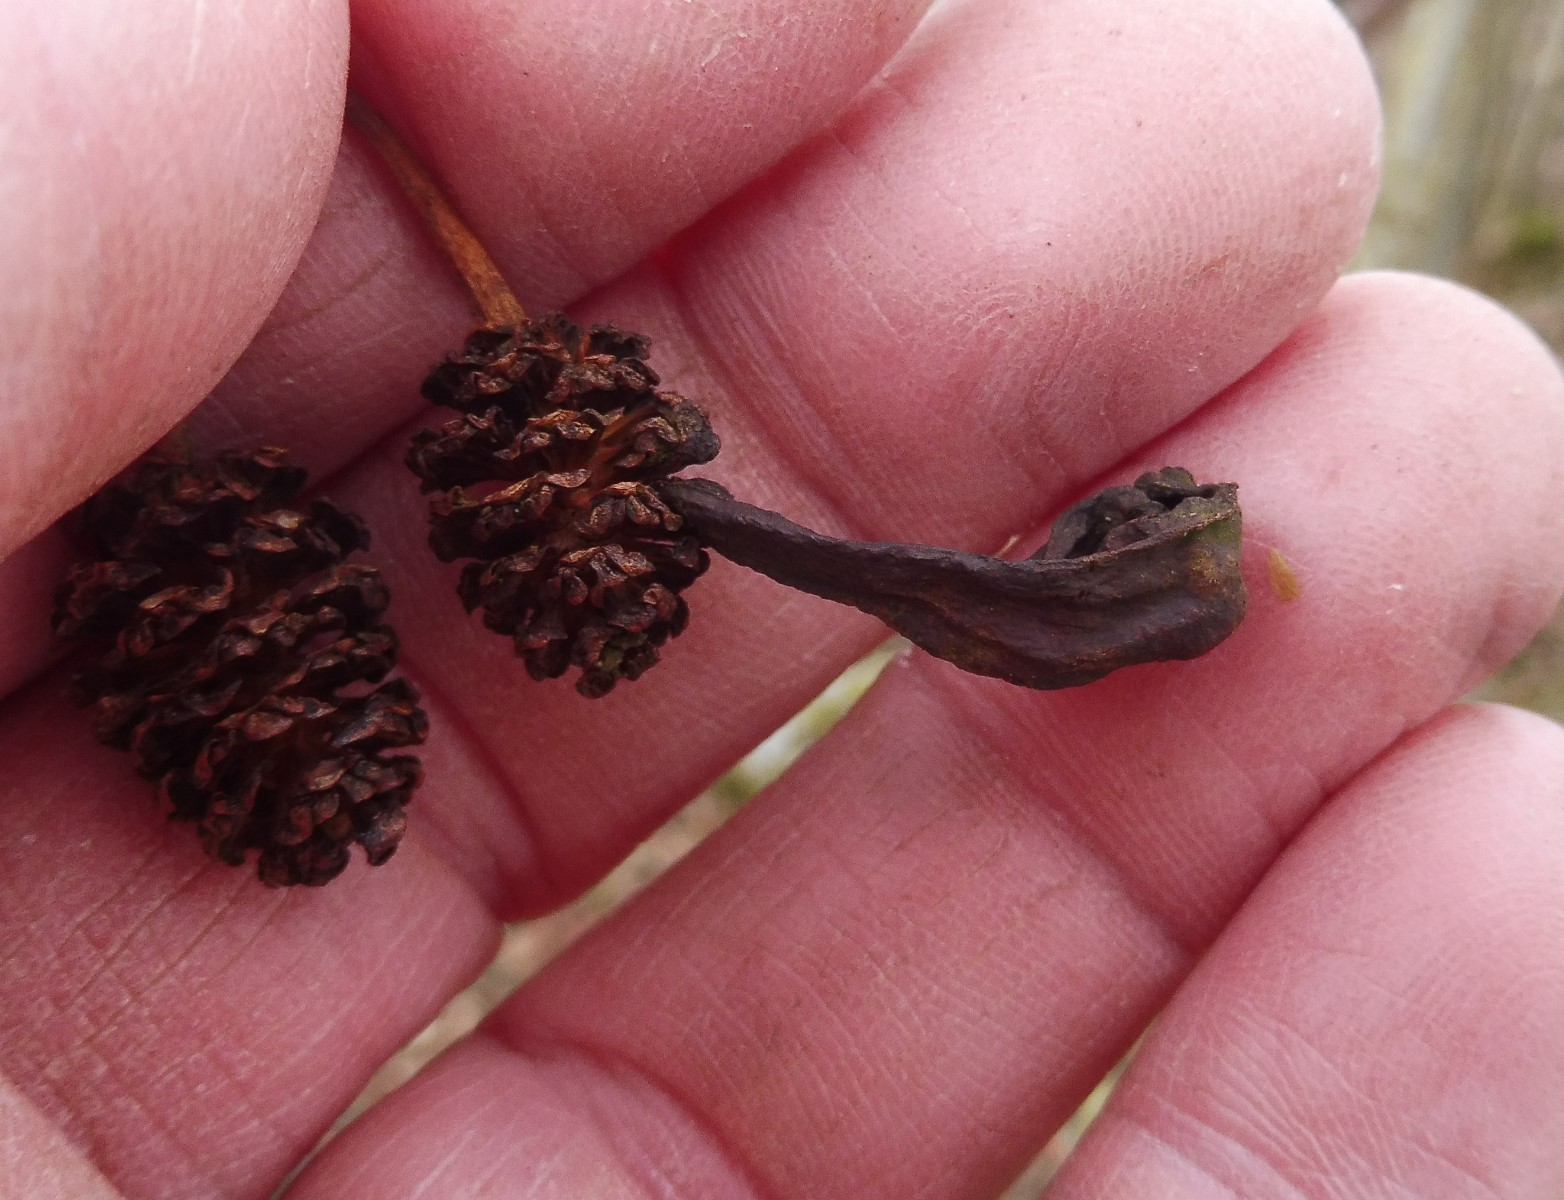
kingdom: Fungi
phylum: Ascomycota
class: Taphrinomycetes
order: Taphrinales
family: Taphrinaceae
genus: Taphrina
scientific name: Taphrina alni
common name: Alder tongue
